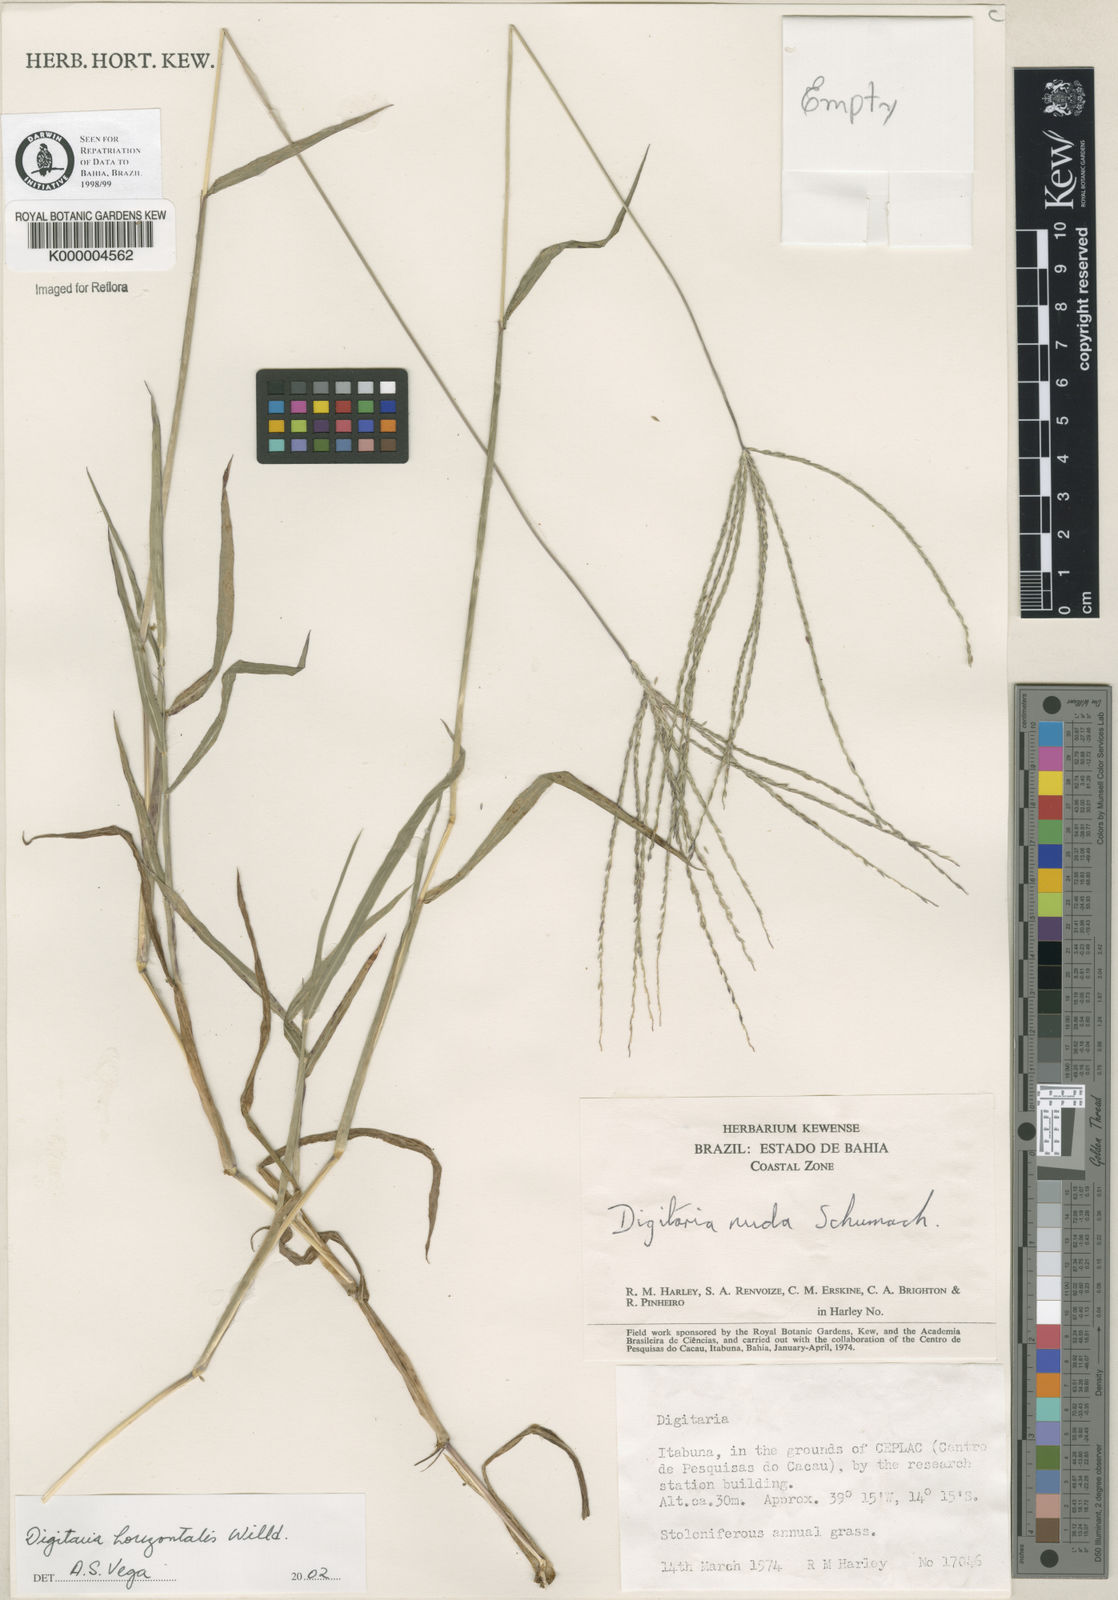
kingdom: Plantae
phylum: Tracheophyta
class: Liliopsida
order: Poales
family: Poaceae
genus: Digitaria
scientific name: Digitaria nuda
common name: Naked crabgrass
